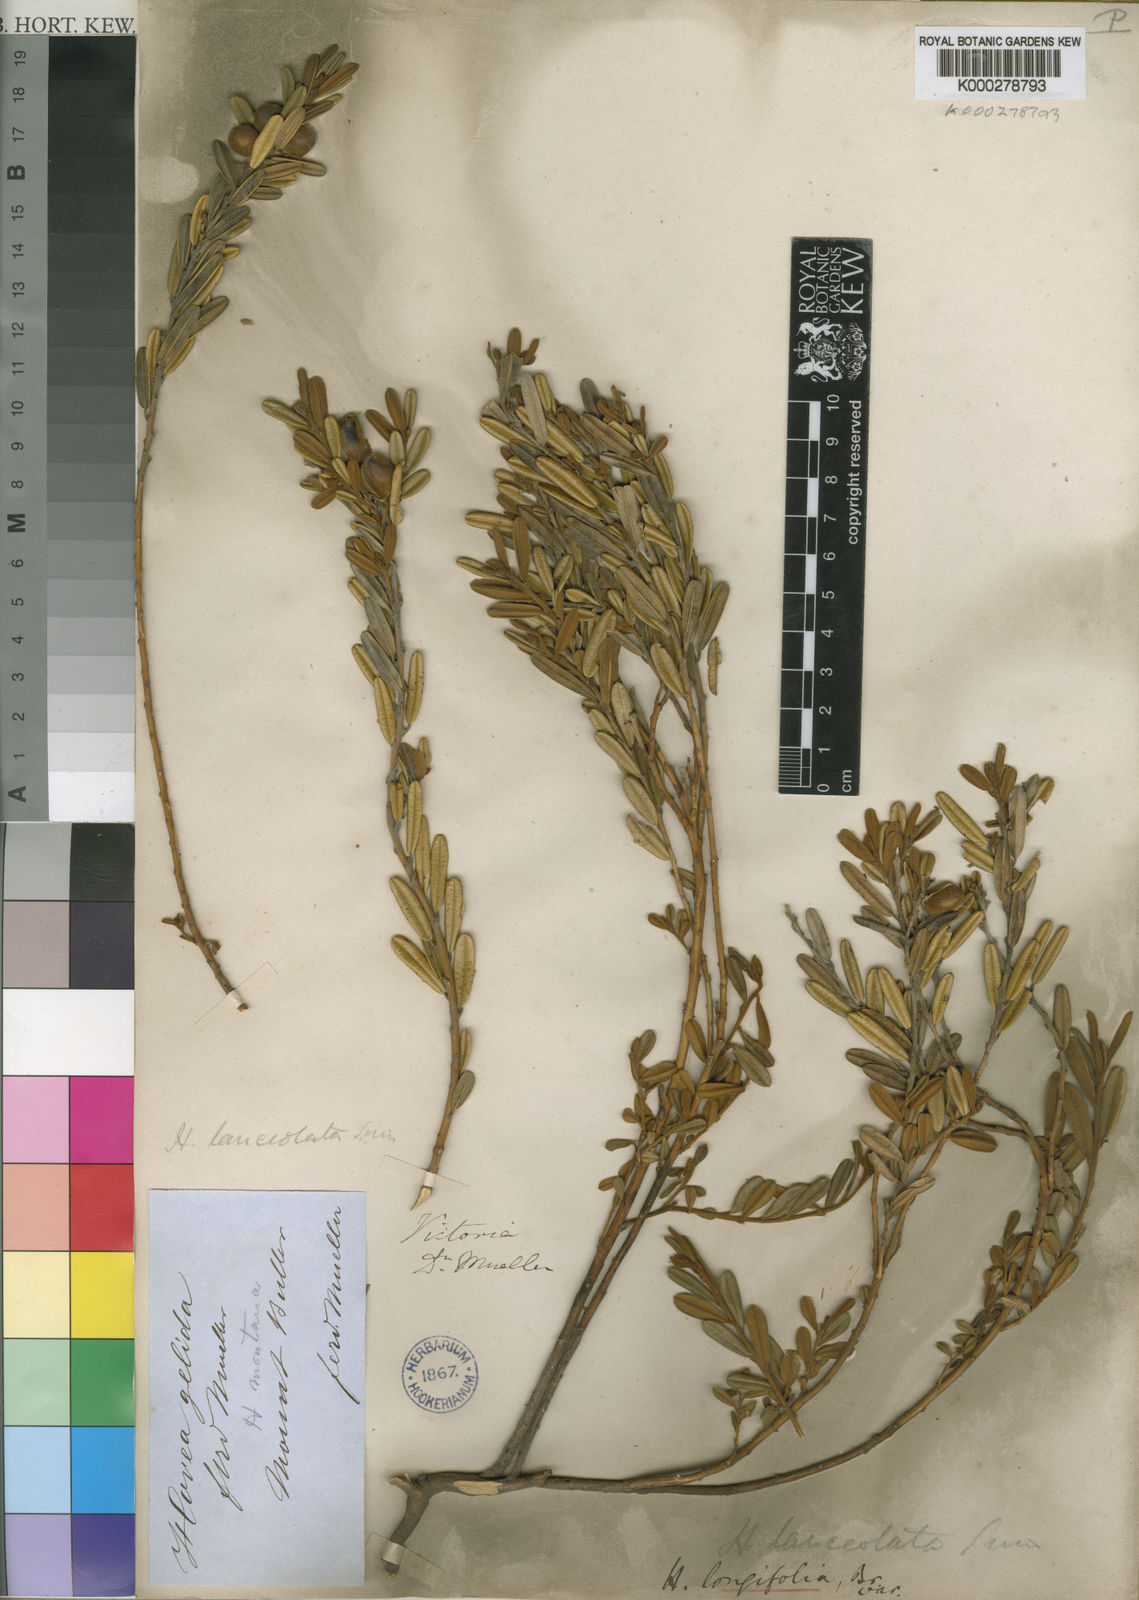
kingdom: Plantae
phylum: Tracheophyta
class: Magnoliopsida
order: Fabales
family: Fabaceae
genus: Hovea
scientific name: Hovea longifolia
